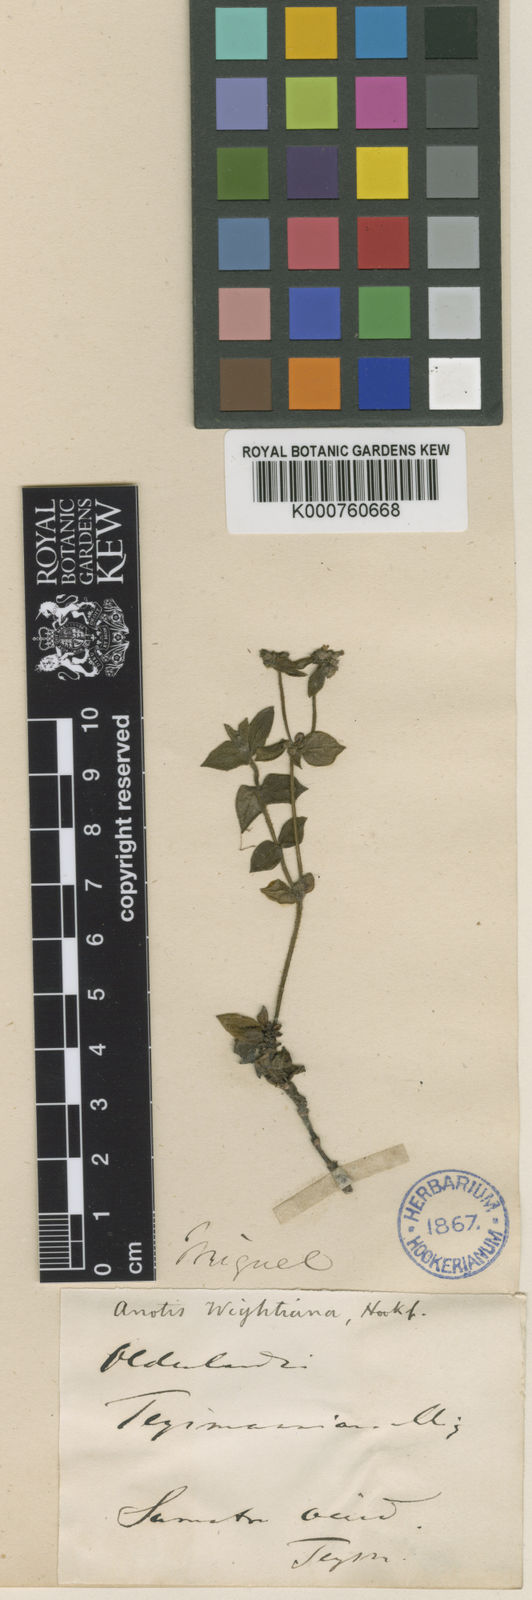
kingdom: Plantae
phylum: Tracheophyta
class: Magnoliopsida
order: Gentianales
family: Rubiaceae
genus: Neanotis
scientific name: Neanotis wightiana
